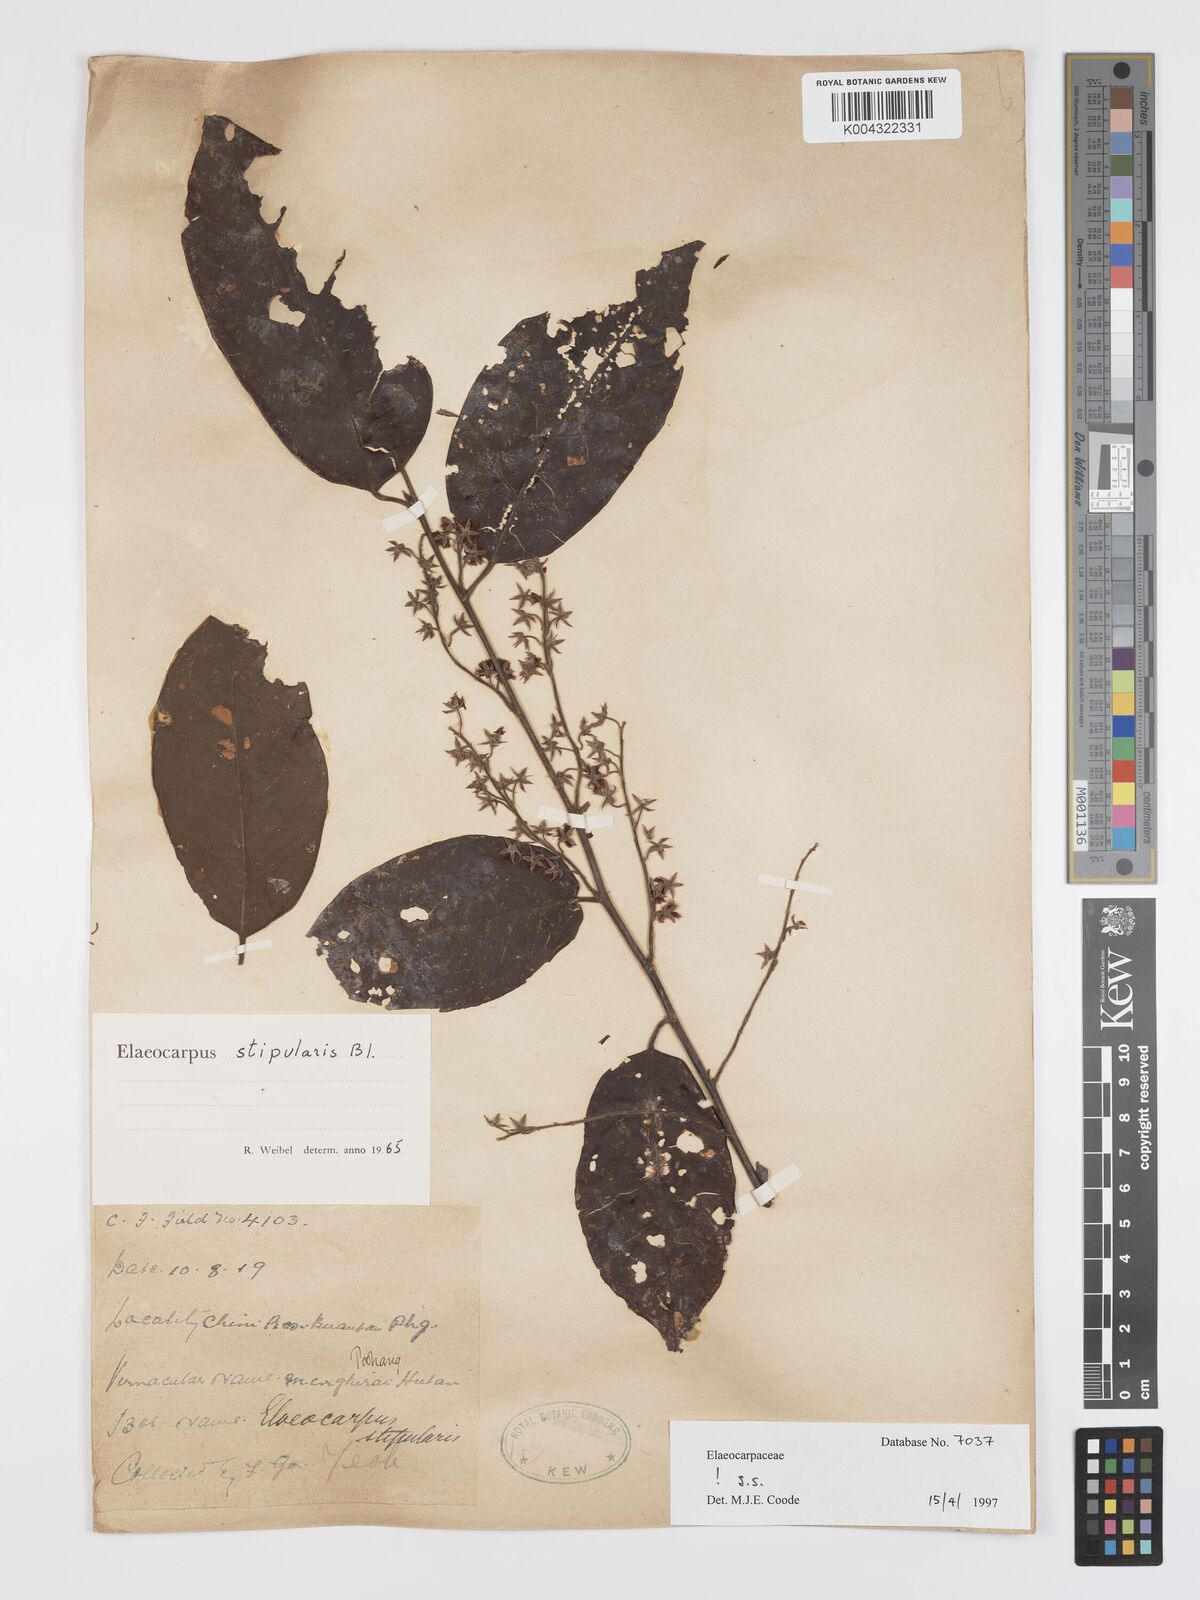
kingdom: Plantae
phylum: Tracheophyta
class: Magnoliopsida
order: Oxalidales
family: Elaeocarpaceae
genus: Elaeocarpus
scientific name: Elaeocarpus stipularis
